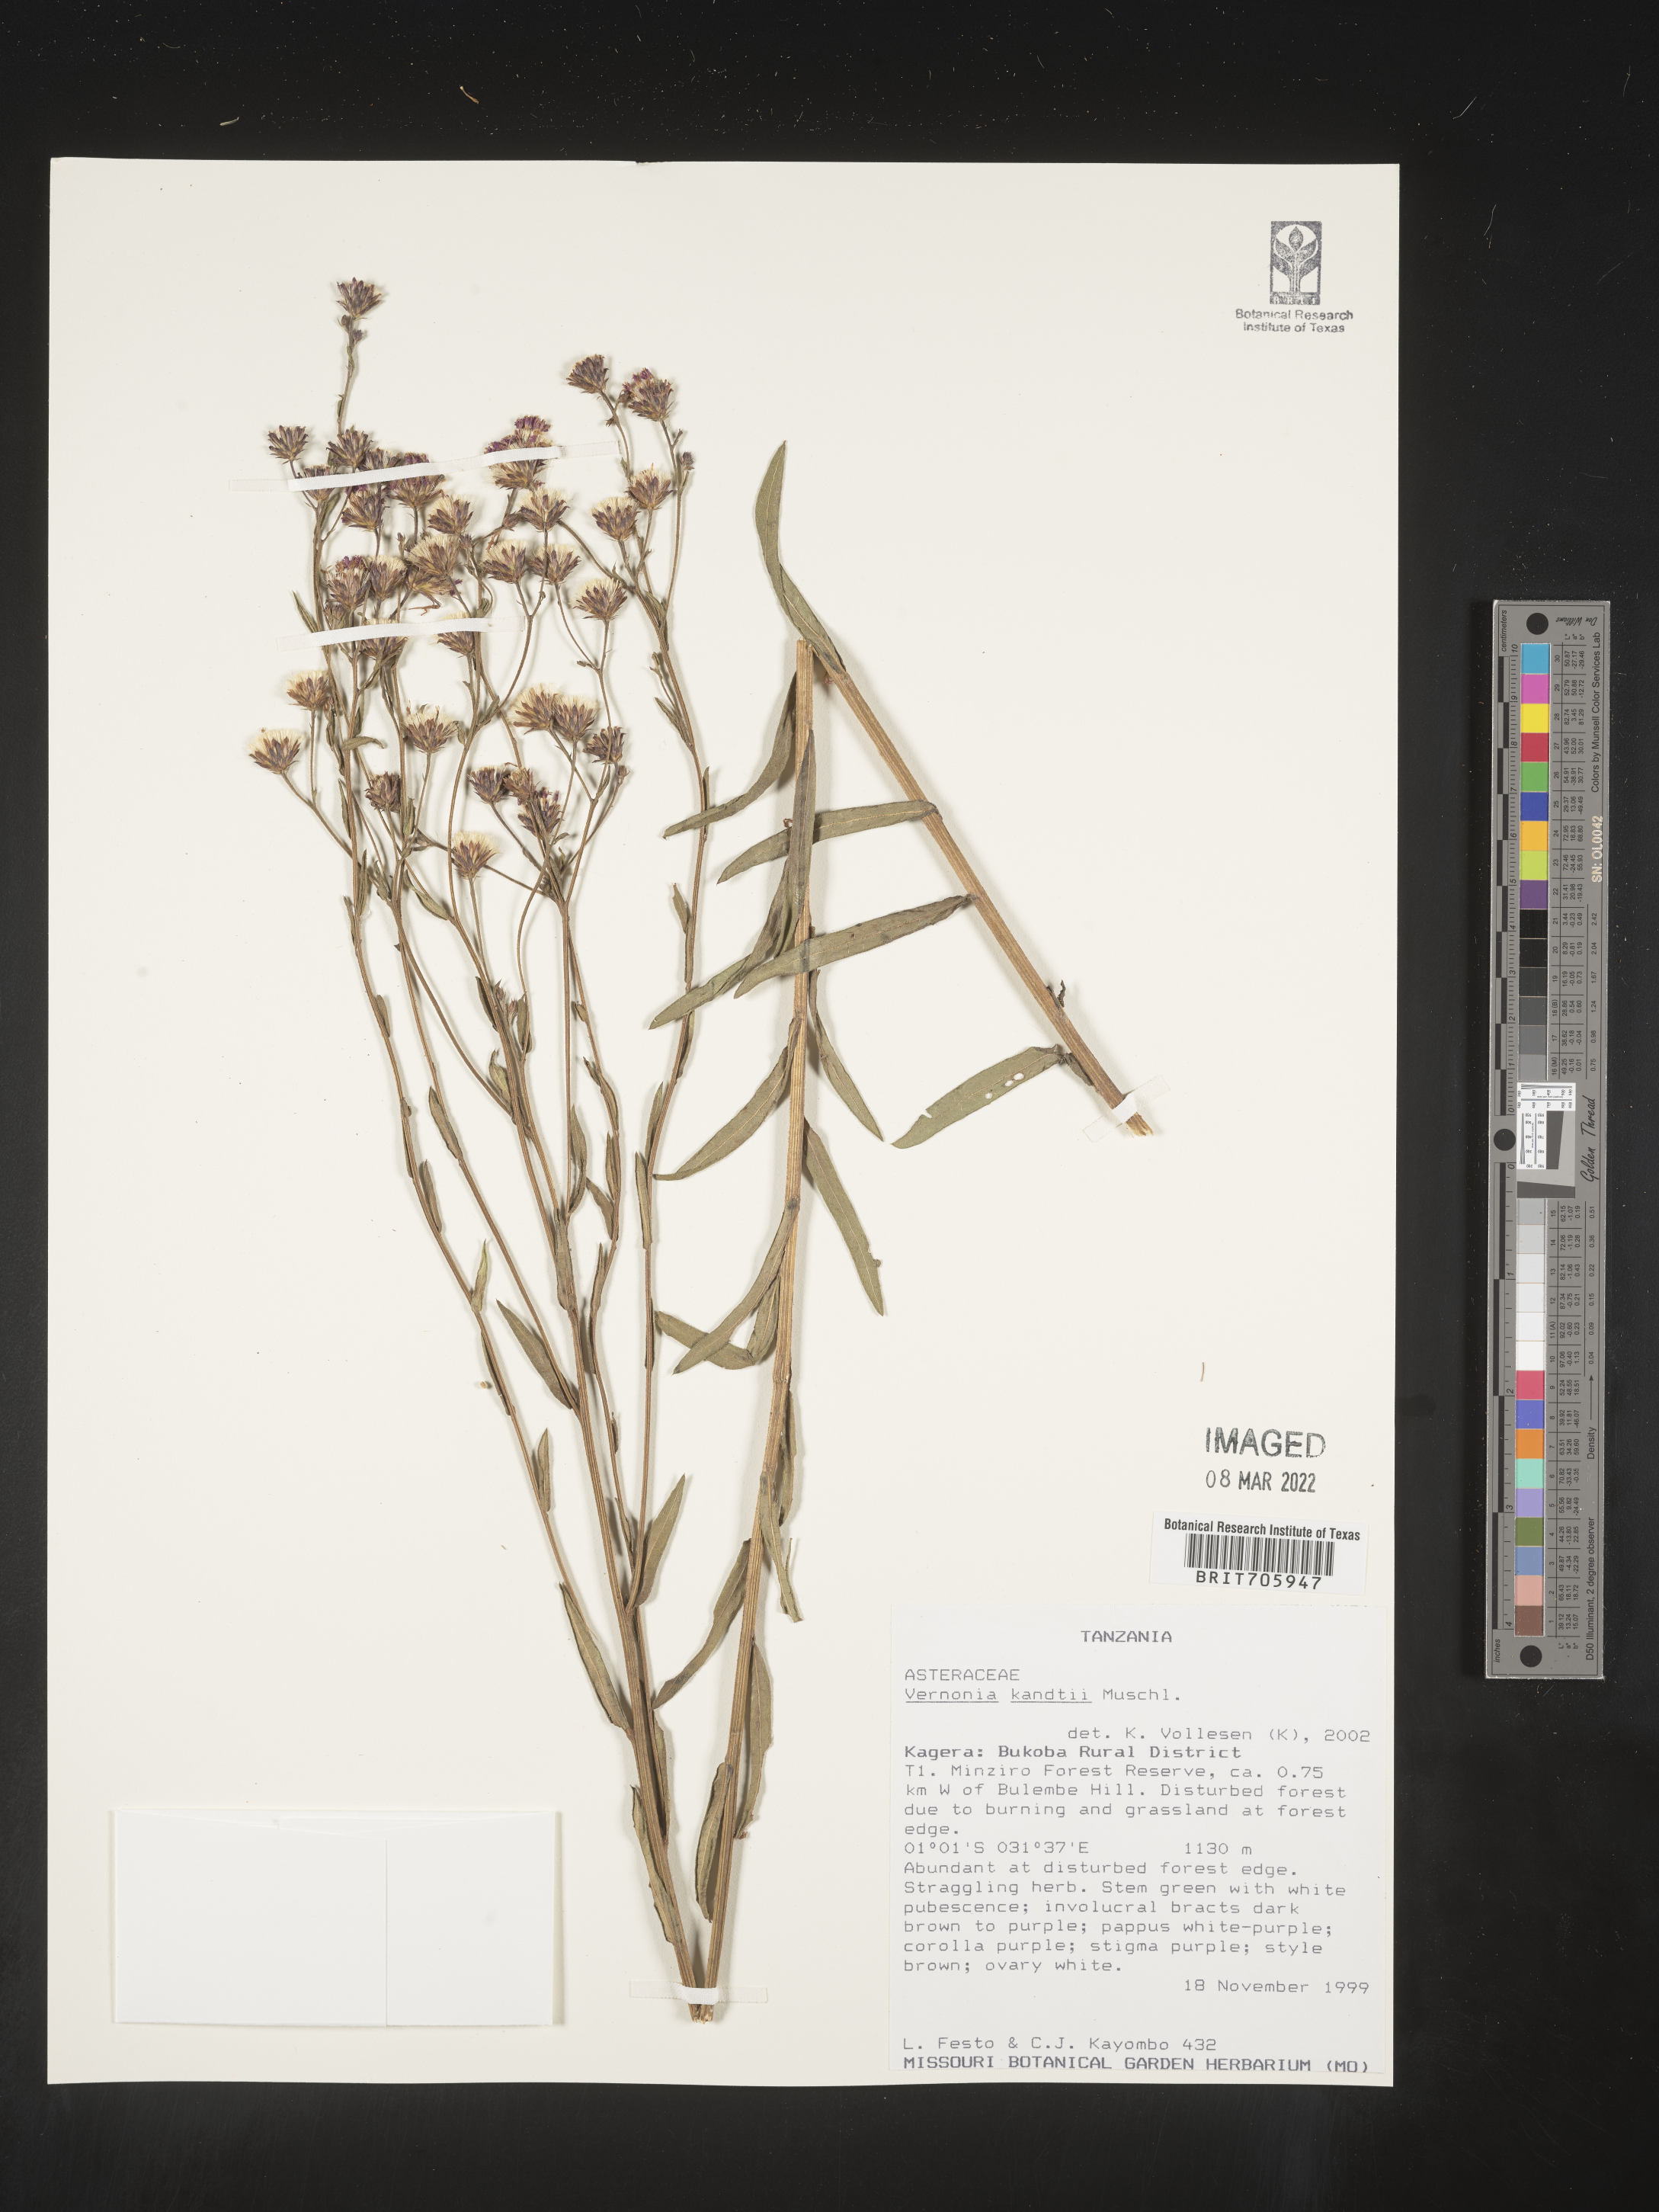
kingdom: Plantae
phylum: Tracheophyta
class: Magnoliopsida
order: Asterales
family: Asteraceae
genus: Vernonia
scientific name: Vernonia
